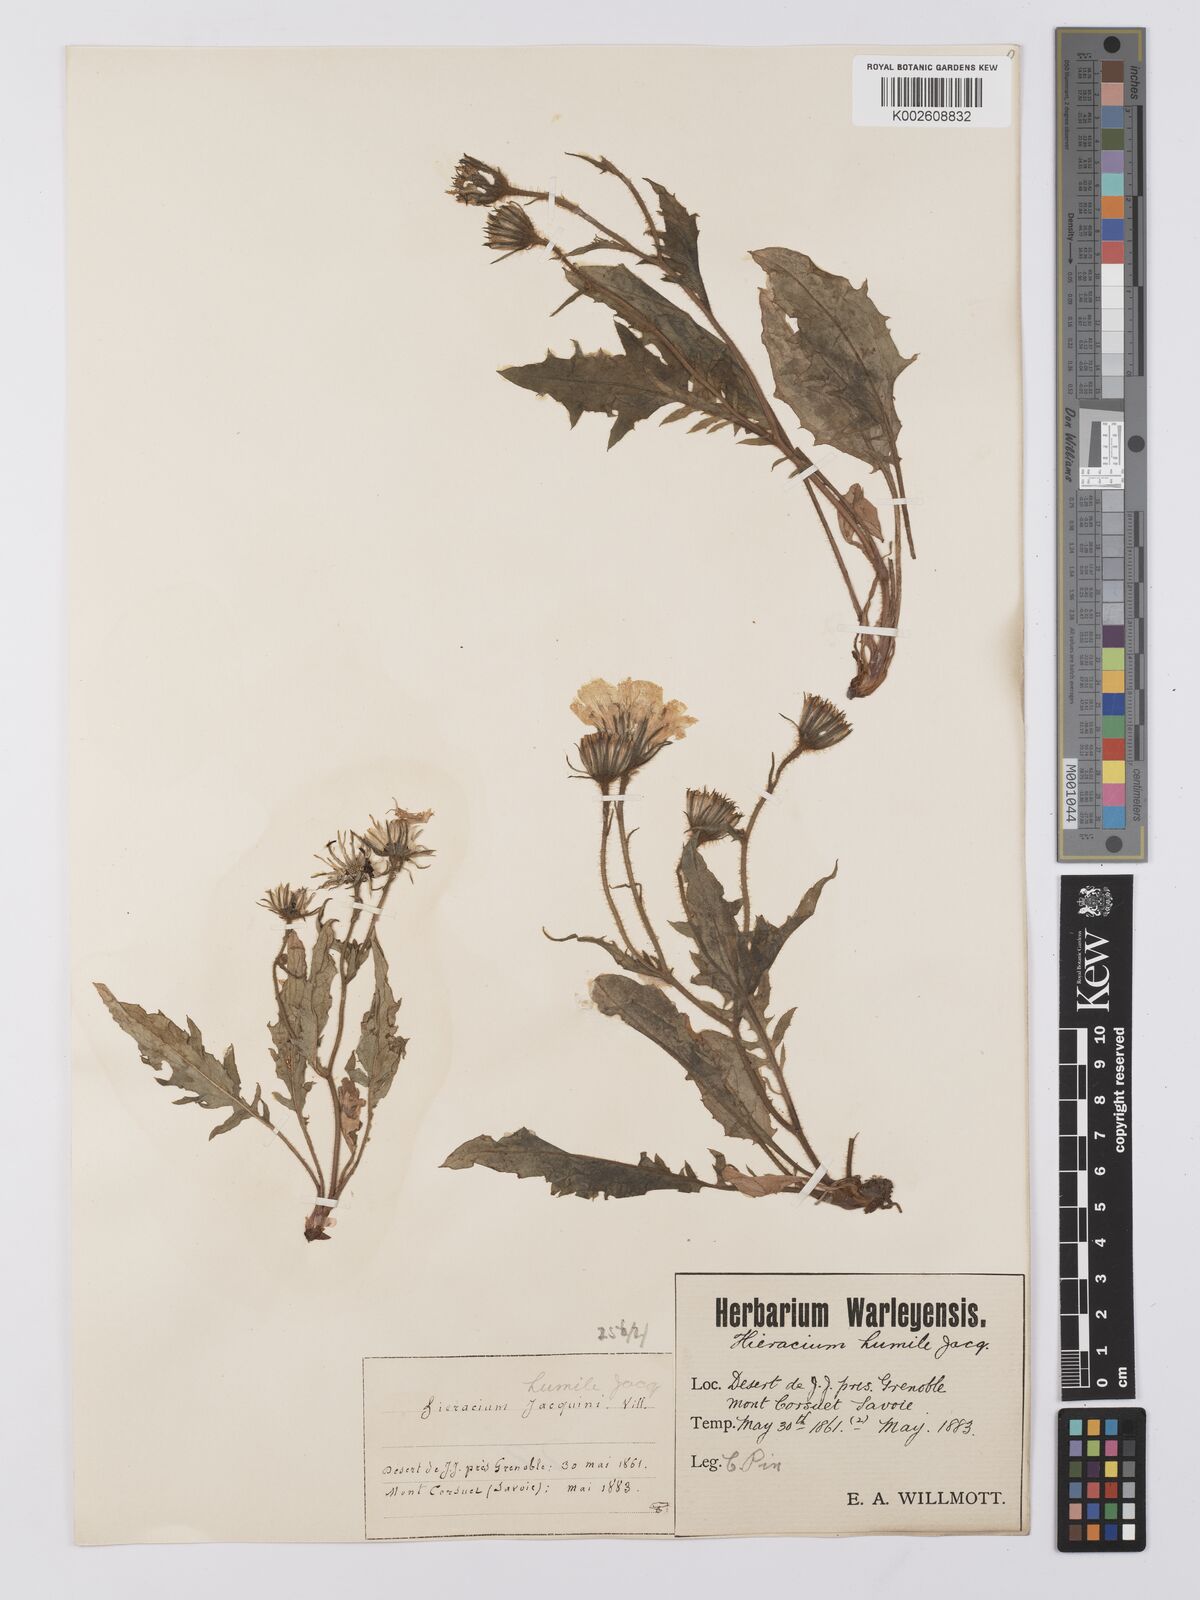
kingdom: Plantae
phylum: Tracheophyta
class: Magnoliopsida
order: Asterales
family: Asteraceae
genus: Hieracium
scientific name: Hieracium cottetii
